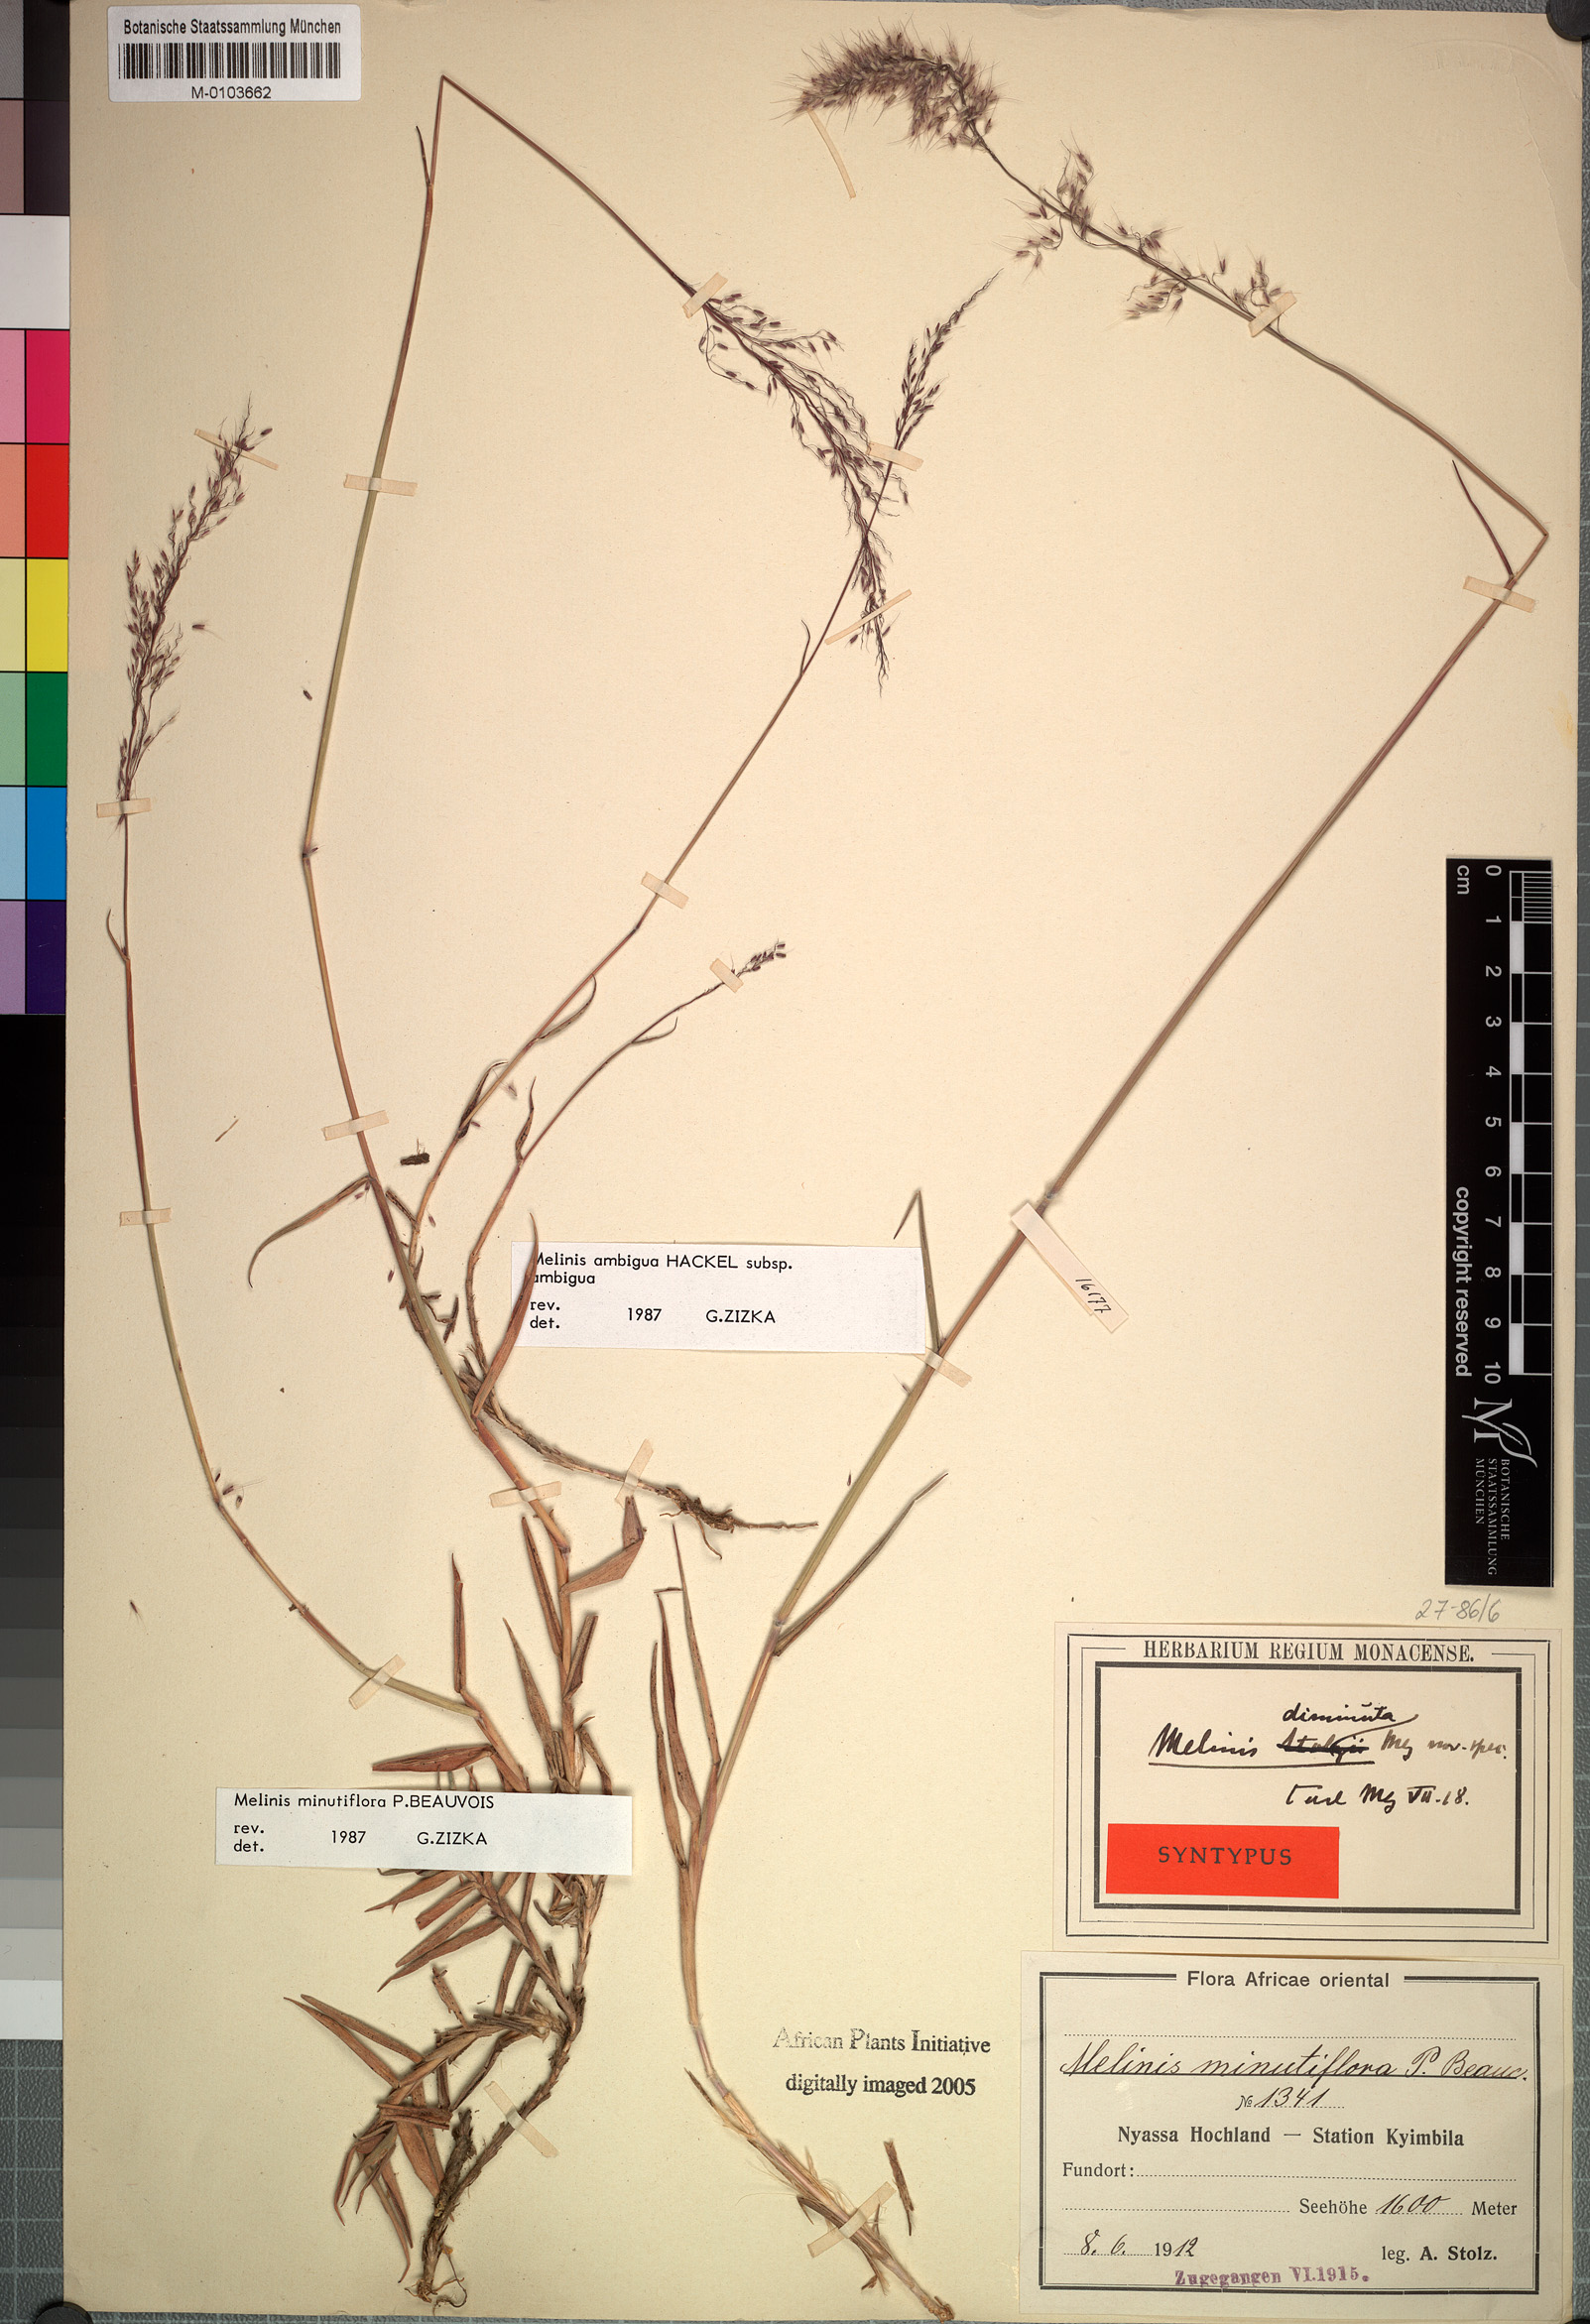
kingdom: Plantae
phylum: Tracheophyta
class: Liliopsida
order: Poales
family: Poaceae
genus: Melinis
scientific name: Melinis ambigua
